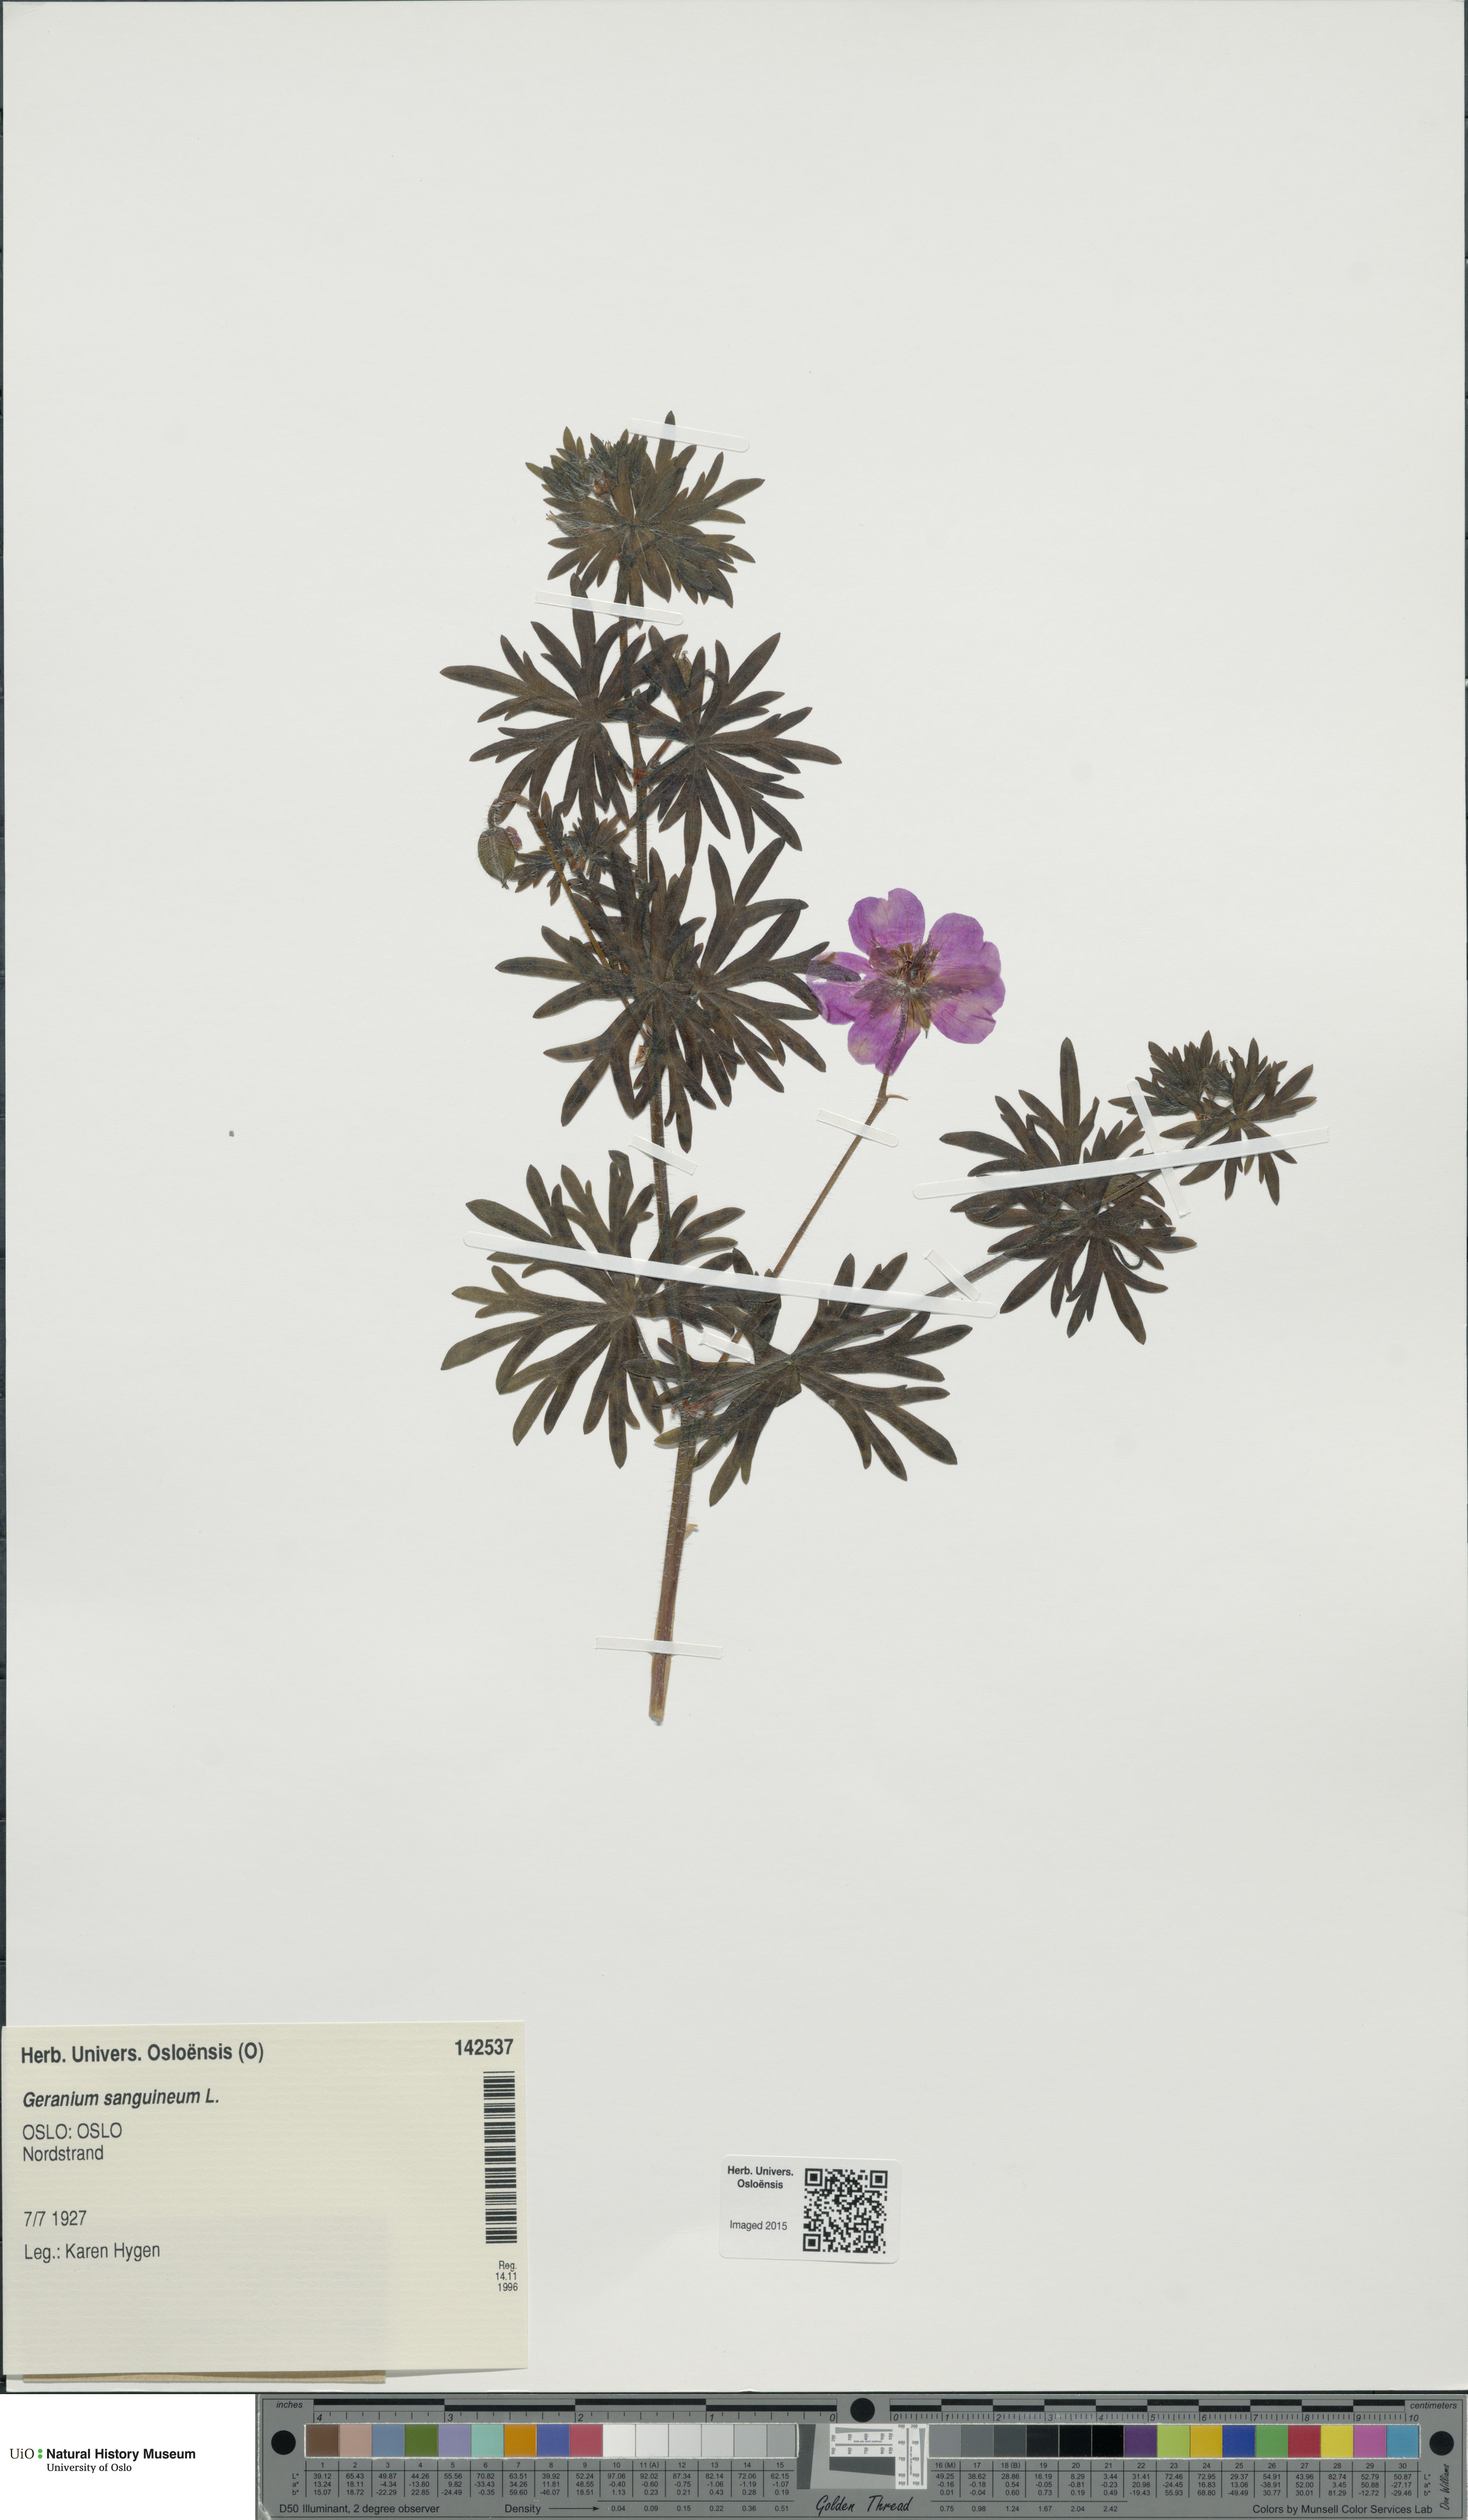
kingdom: Plantae
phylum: Tracheophyta
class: Magnoliopsida
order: Geraniales
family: Geraniaceae
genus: Geranium
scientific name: Geranium sanguineum
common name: Bloody crane's-bill
